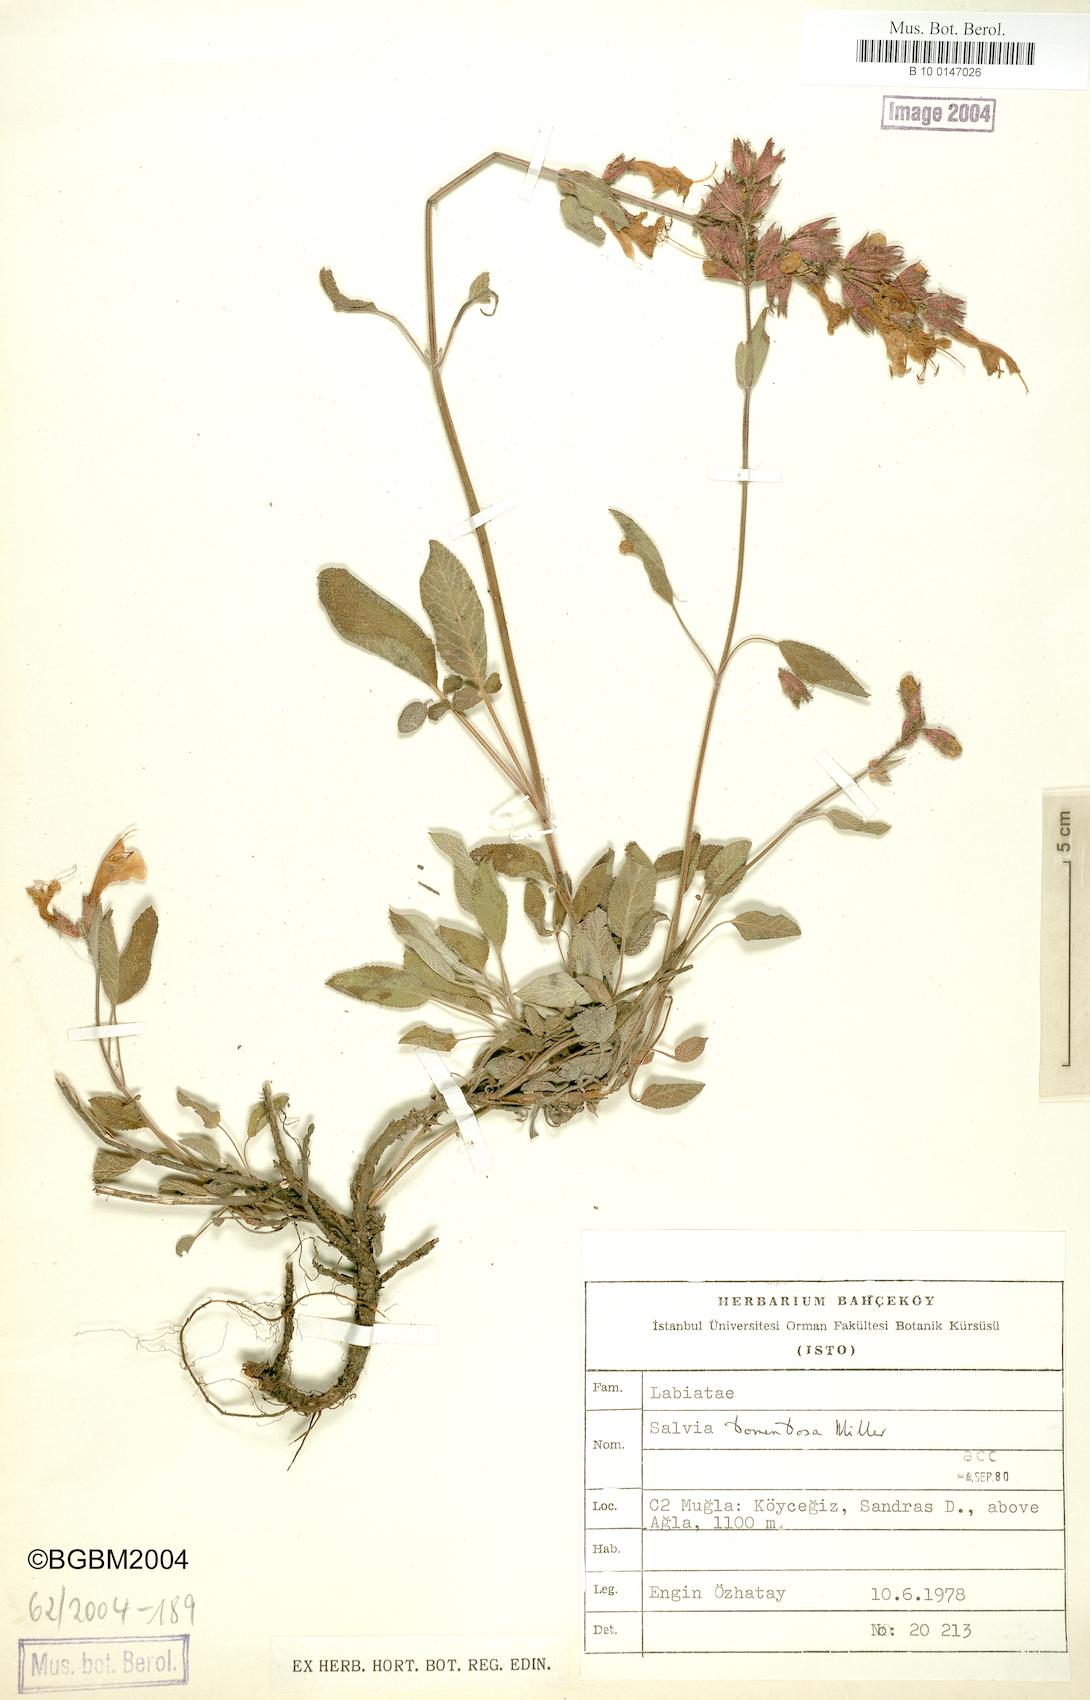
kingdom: Plantae
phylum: Tracheophyta
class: Magnoliopsida
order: Lamiales
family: Lamiaceae
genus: Salvia
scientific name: Salvia tomentosa
